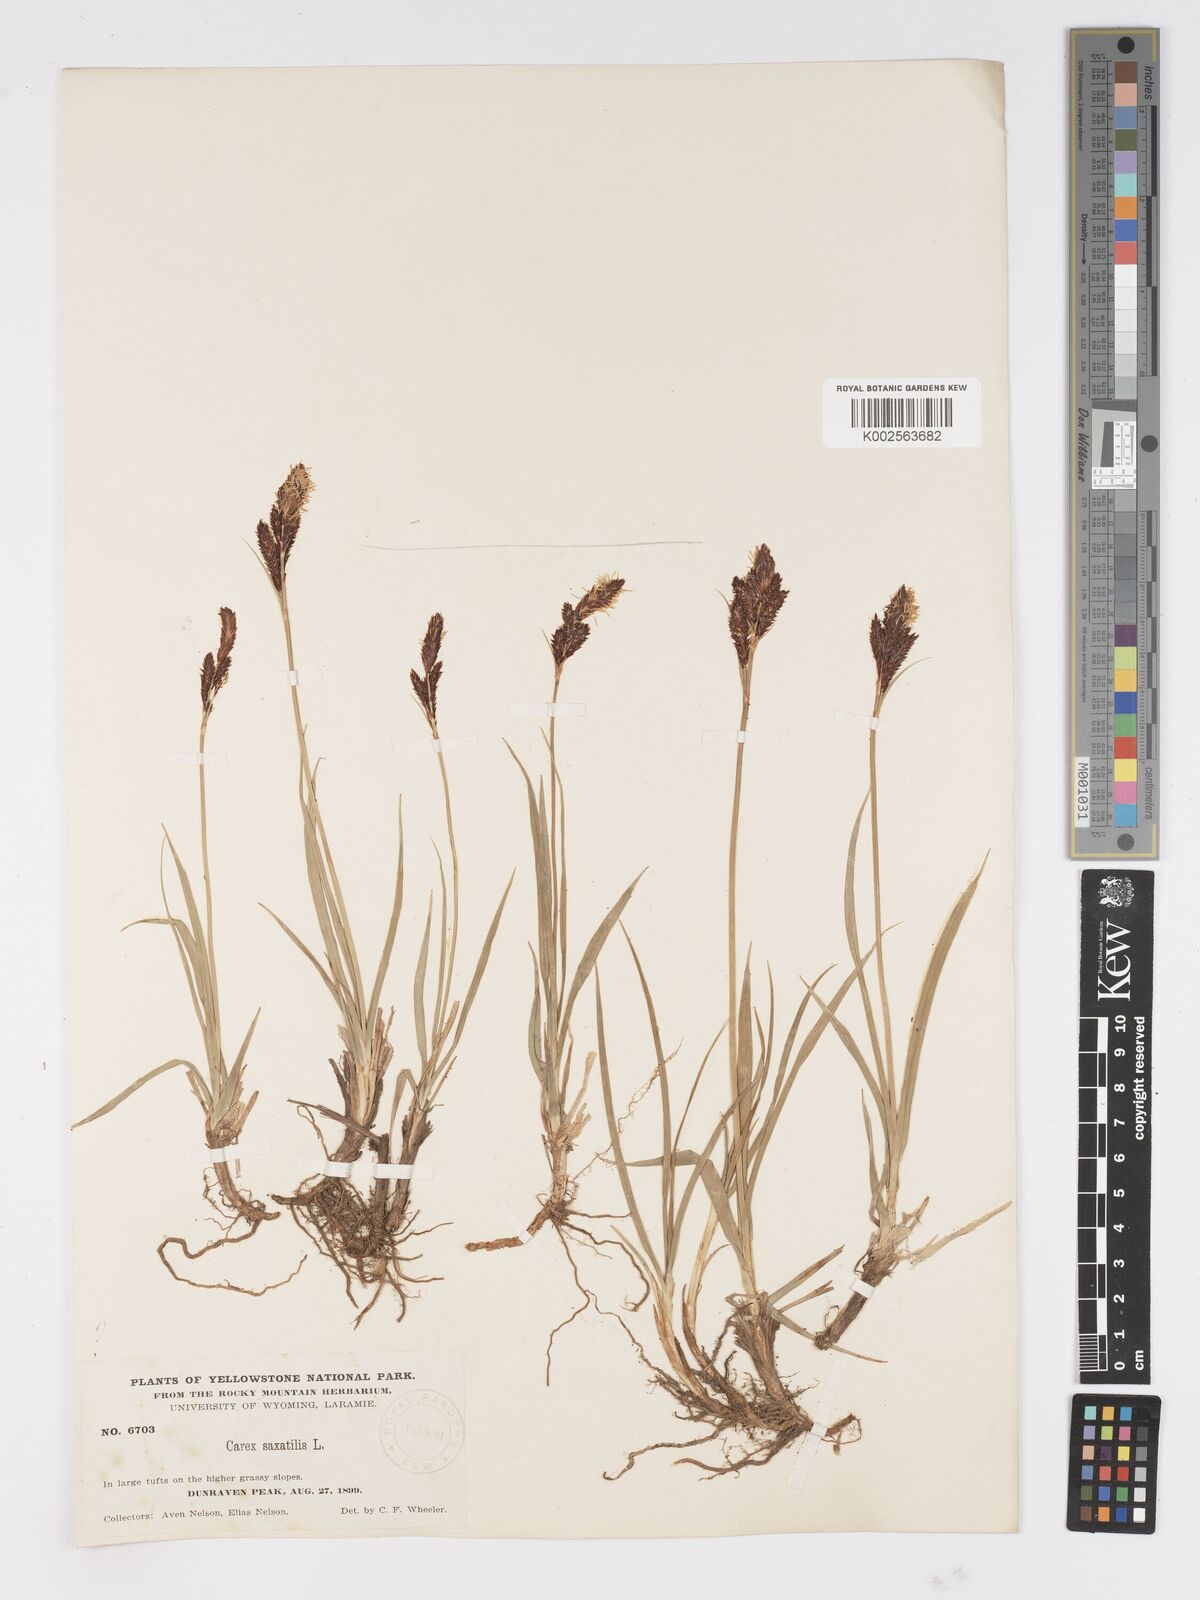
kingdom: Plantae
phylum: Tracheophyta
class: Liliopsida
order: Poales
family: Cyperaceae
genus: Carex
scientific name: Carex saxatilis
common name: Russet sedge
